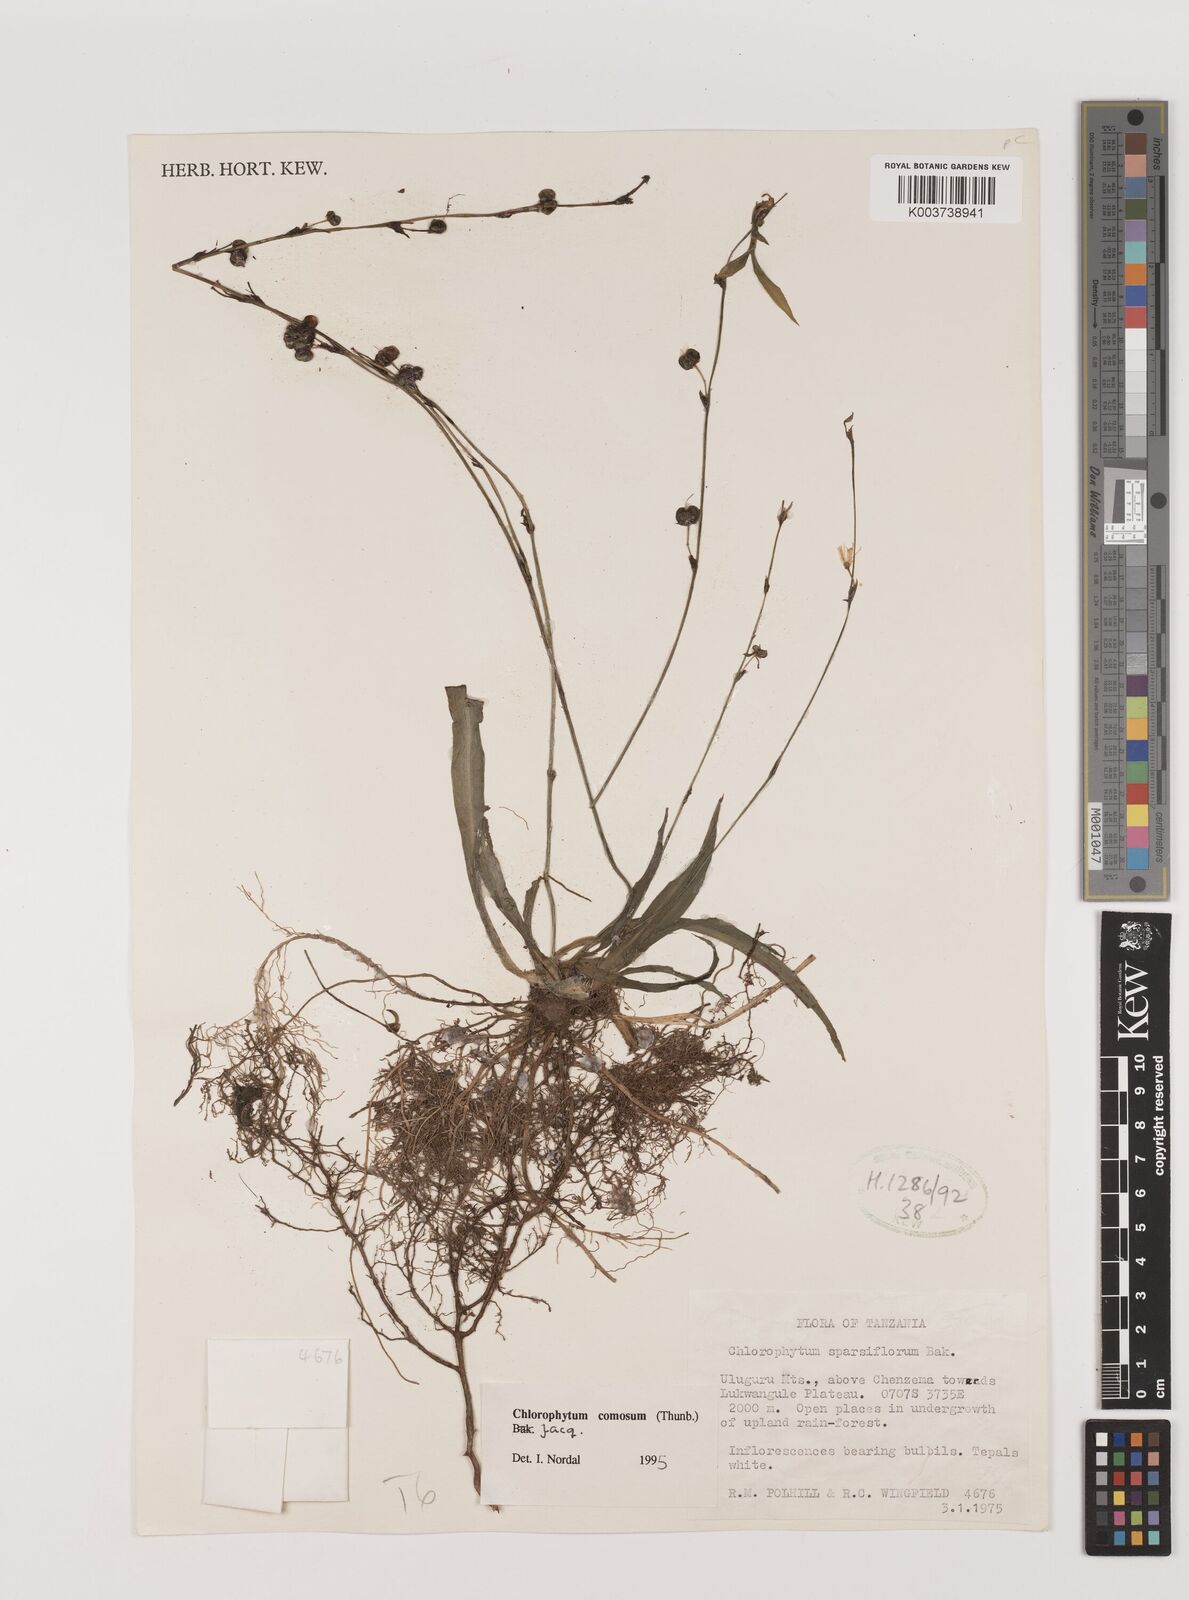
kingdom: Plantae
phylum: Tracheophyta
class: Liliopsida
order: Asparagales
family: Asparagaceae
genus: Chlorophytum
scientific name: Chlorophytum comosum
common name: Spider plant
